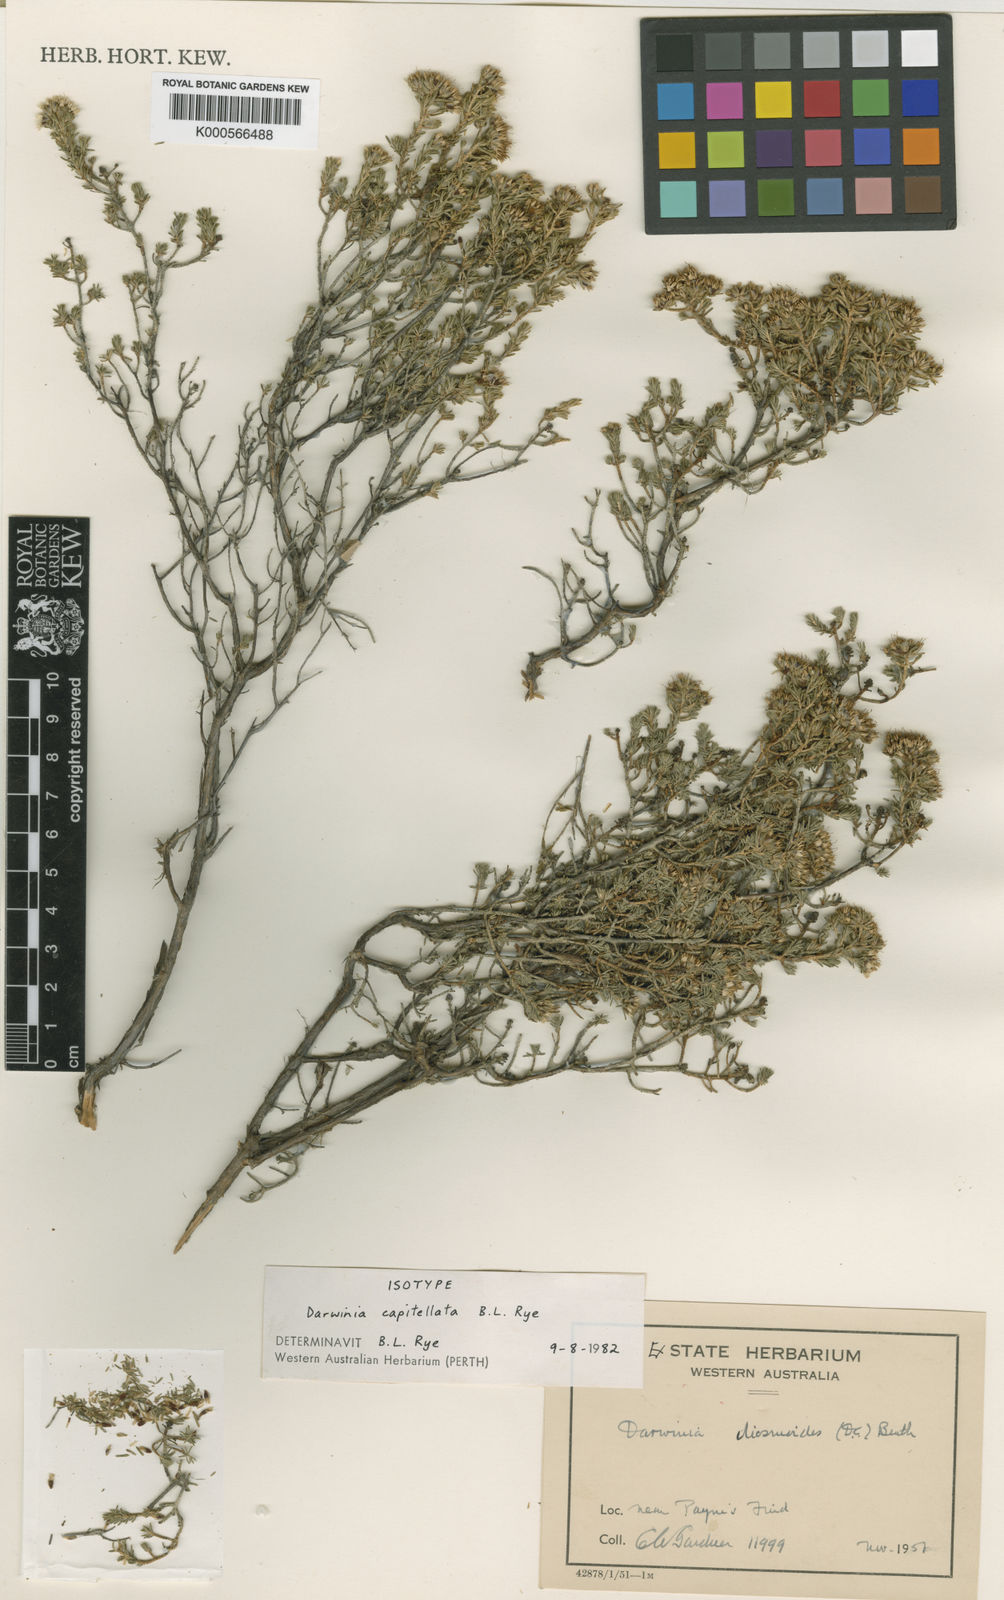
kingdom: Plantae
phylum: Tracheophyta
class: Magnoliopsida
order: Myrtales
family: Myrtaceae
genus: Darwinia
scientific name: Darwinia capitellata
